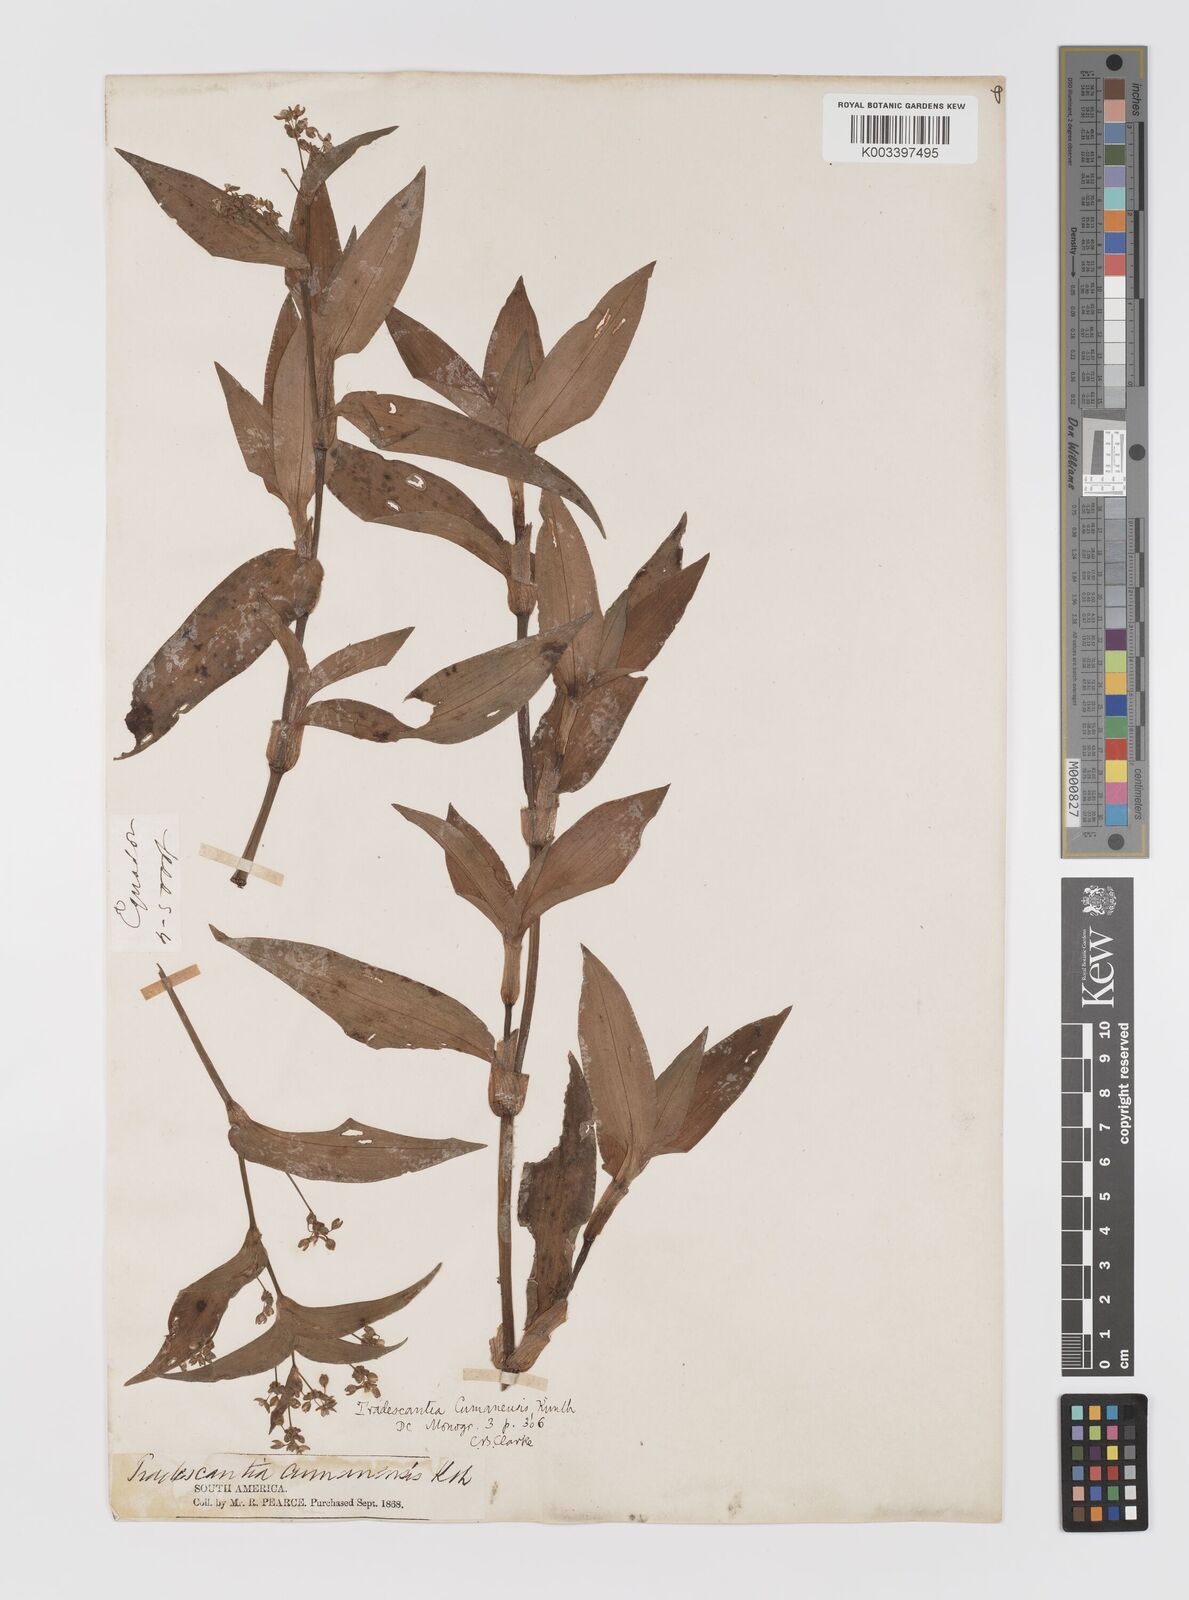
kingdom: Plantae
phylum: Tracheophyta
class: Liliopsida
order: Commelinales
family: Commelinaceae
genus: Callisia
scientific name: Callisia serrulata
